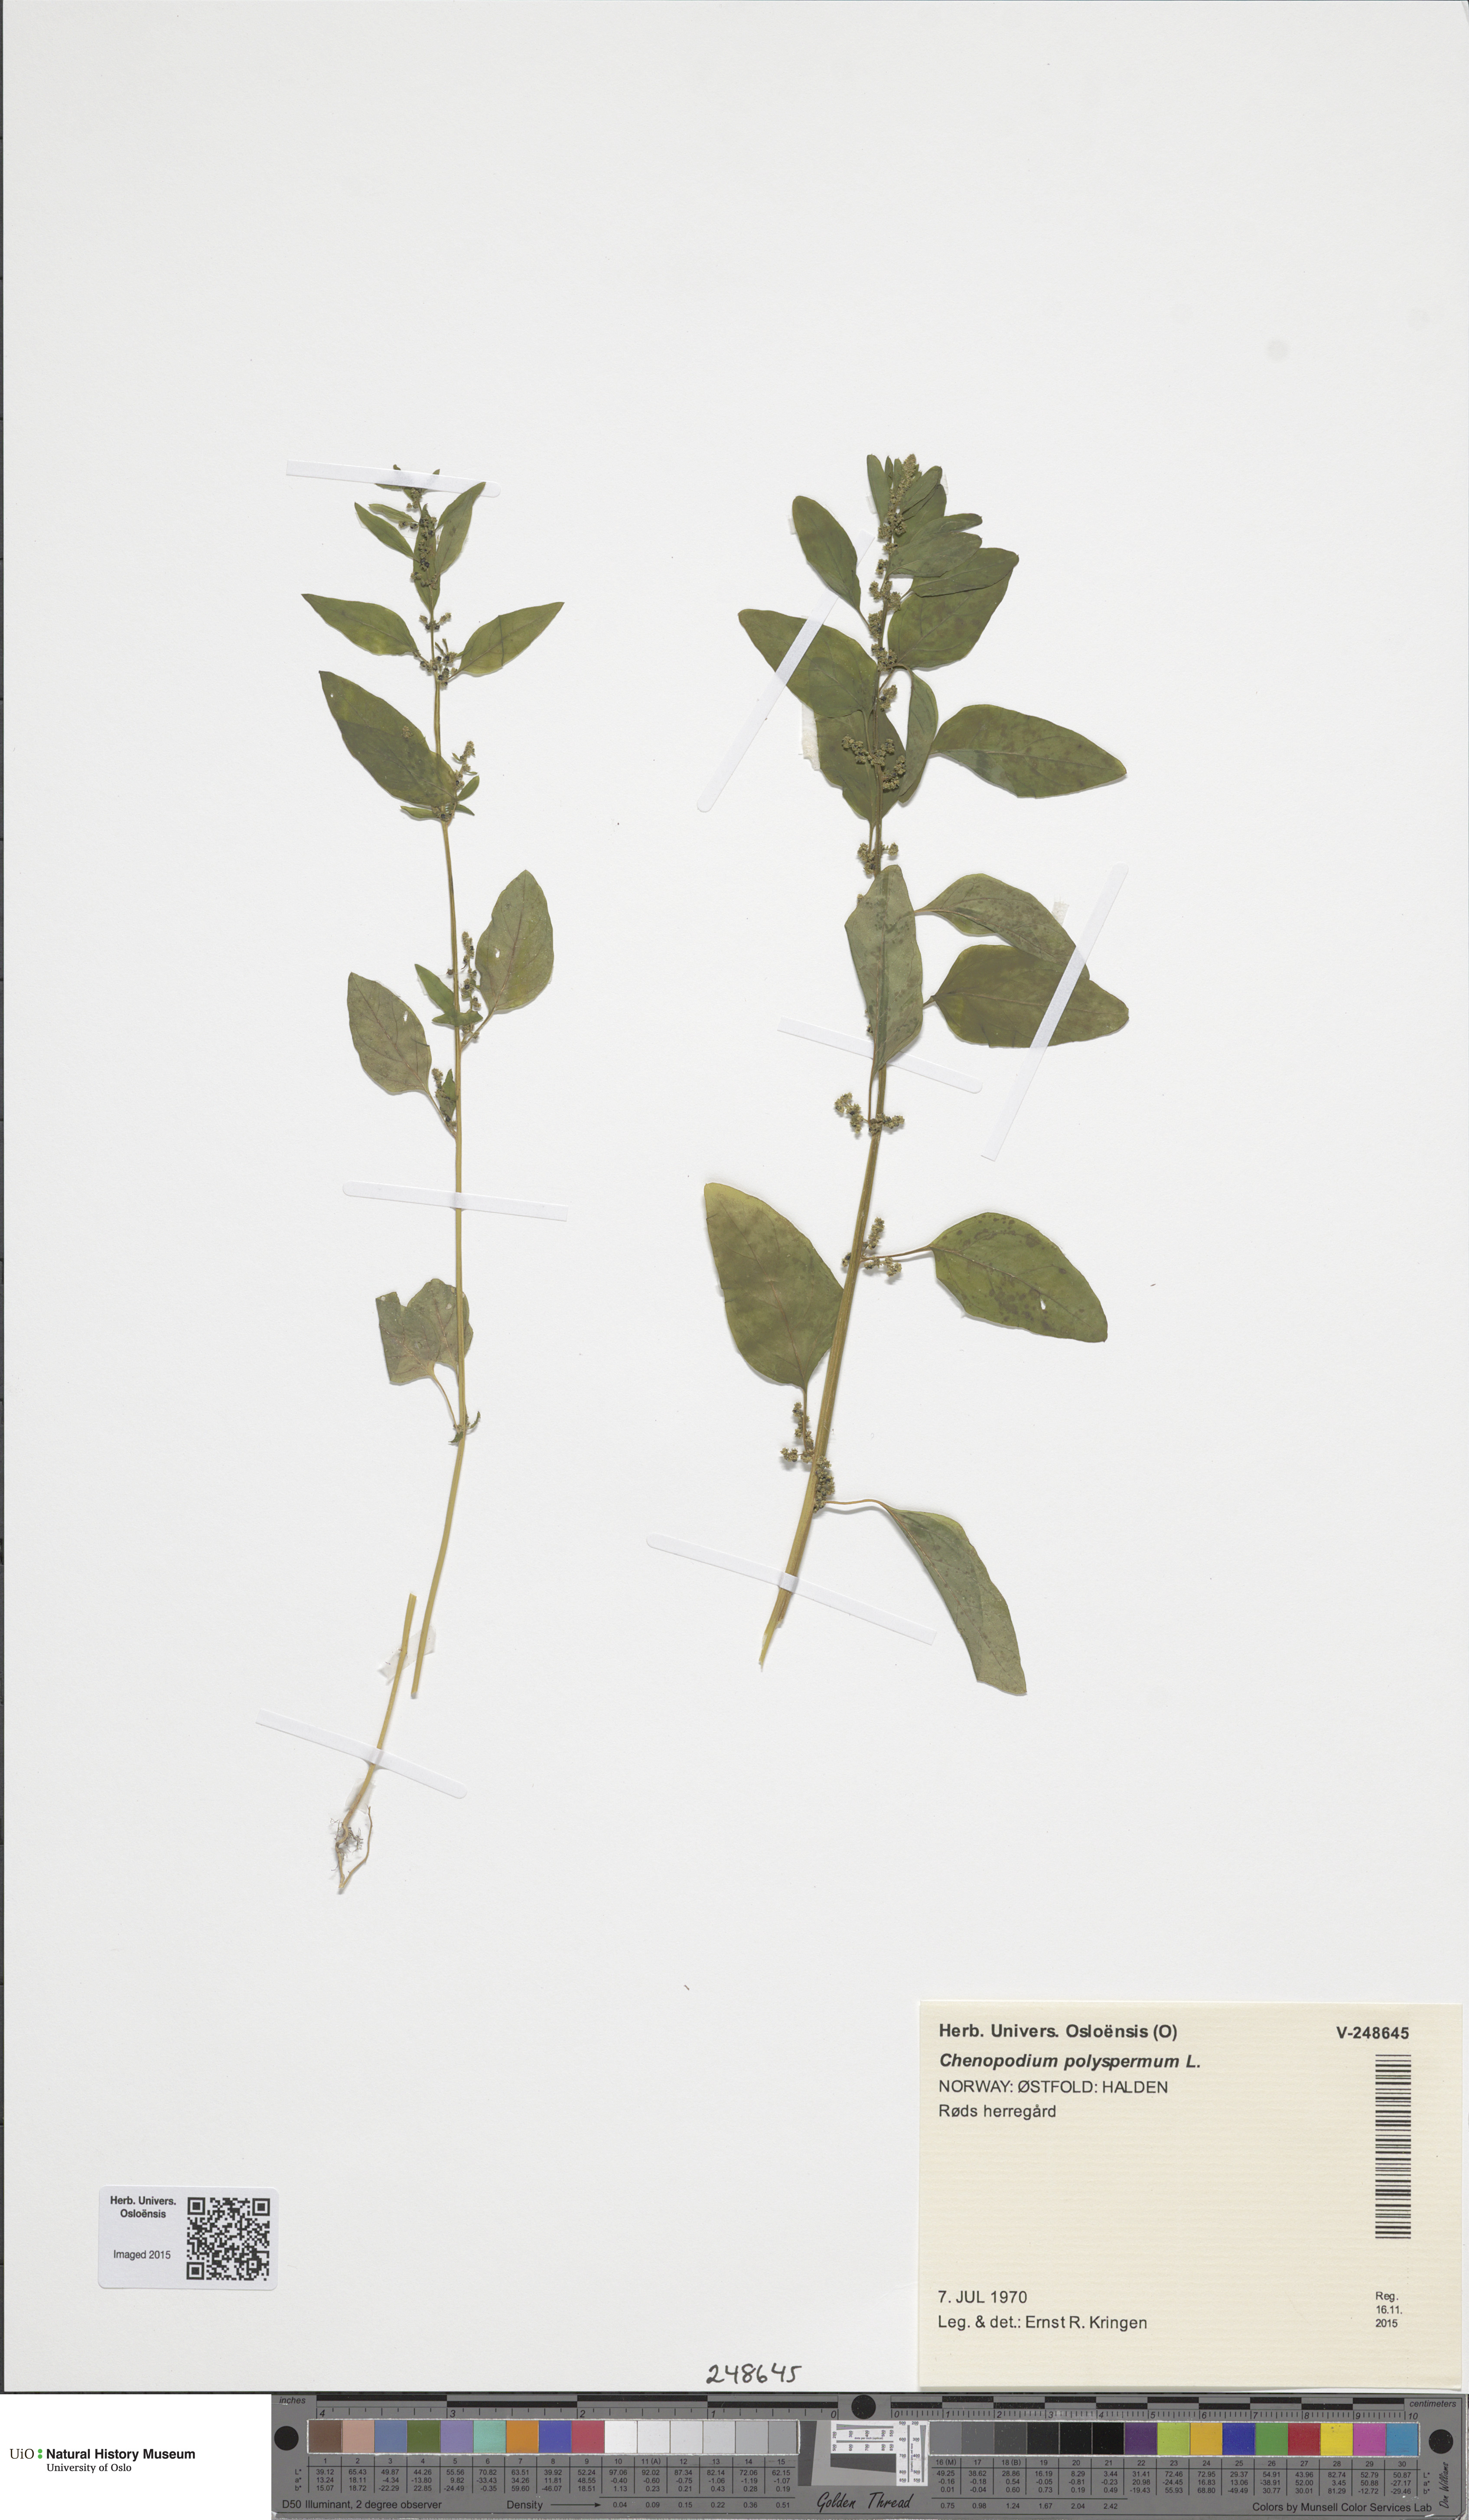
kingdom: Plantae
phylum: Tracheophyta
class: Magnoliopsida
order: Caryophyllales
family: Amaranthaceae
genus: Lipandra
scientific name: Lipandra polysperma
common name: Many-seed goosefoot
